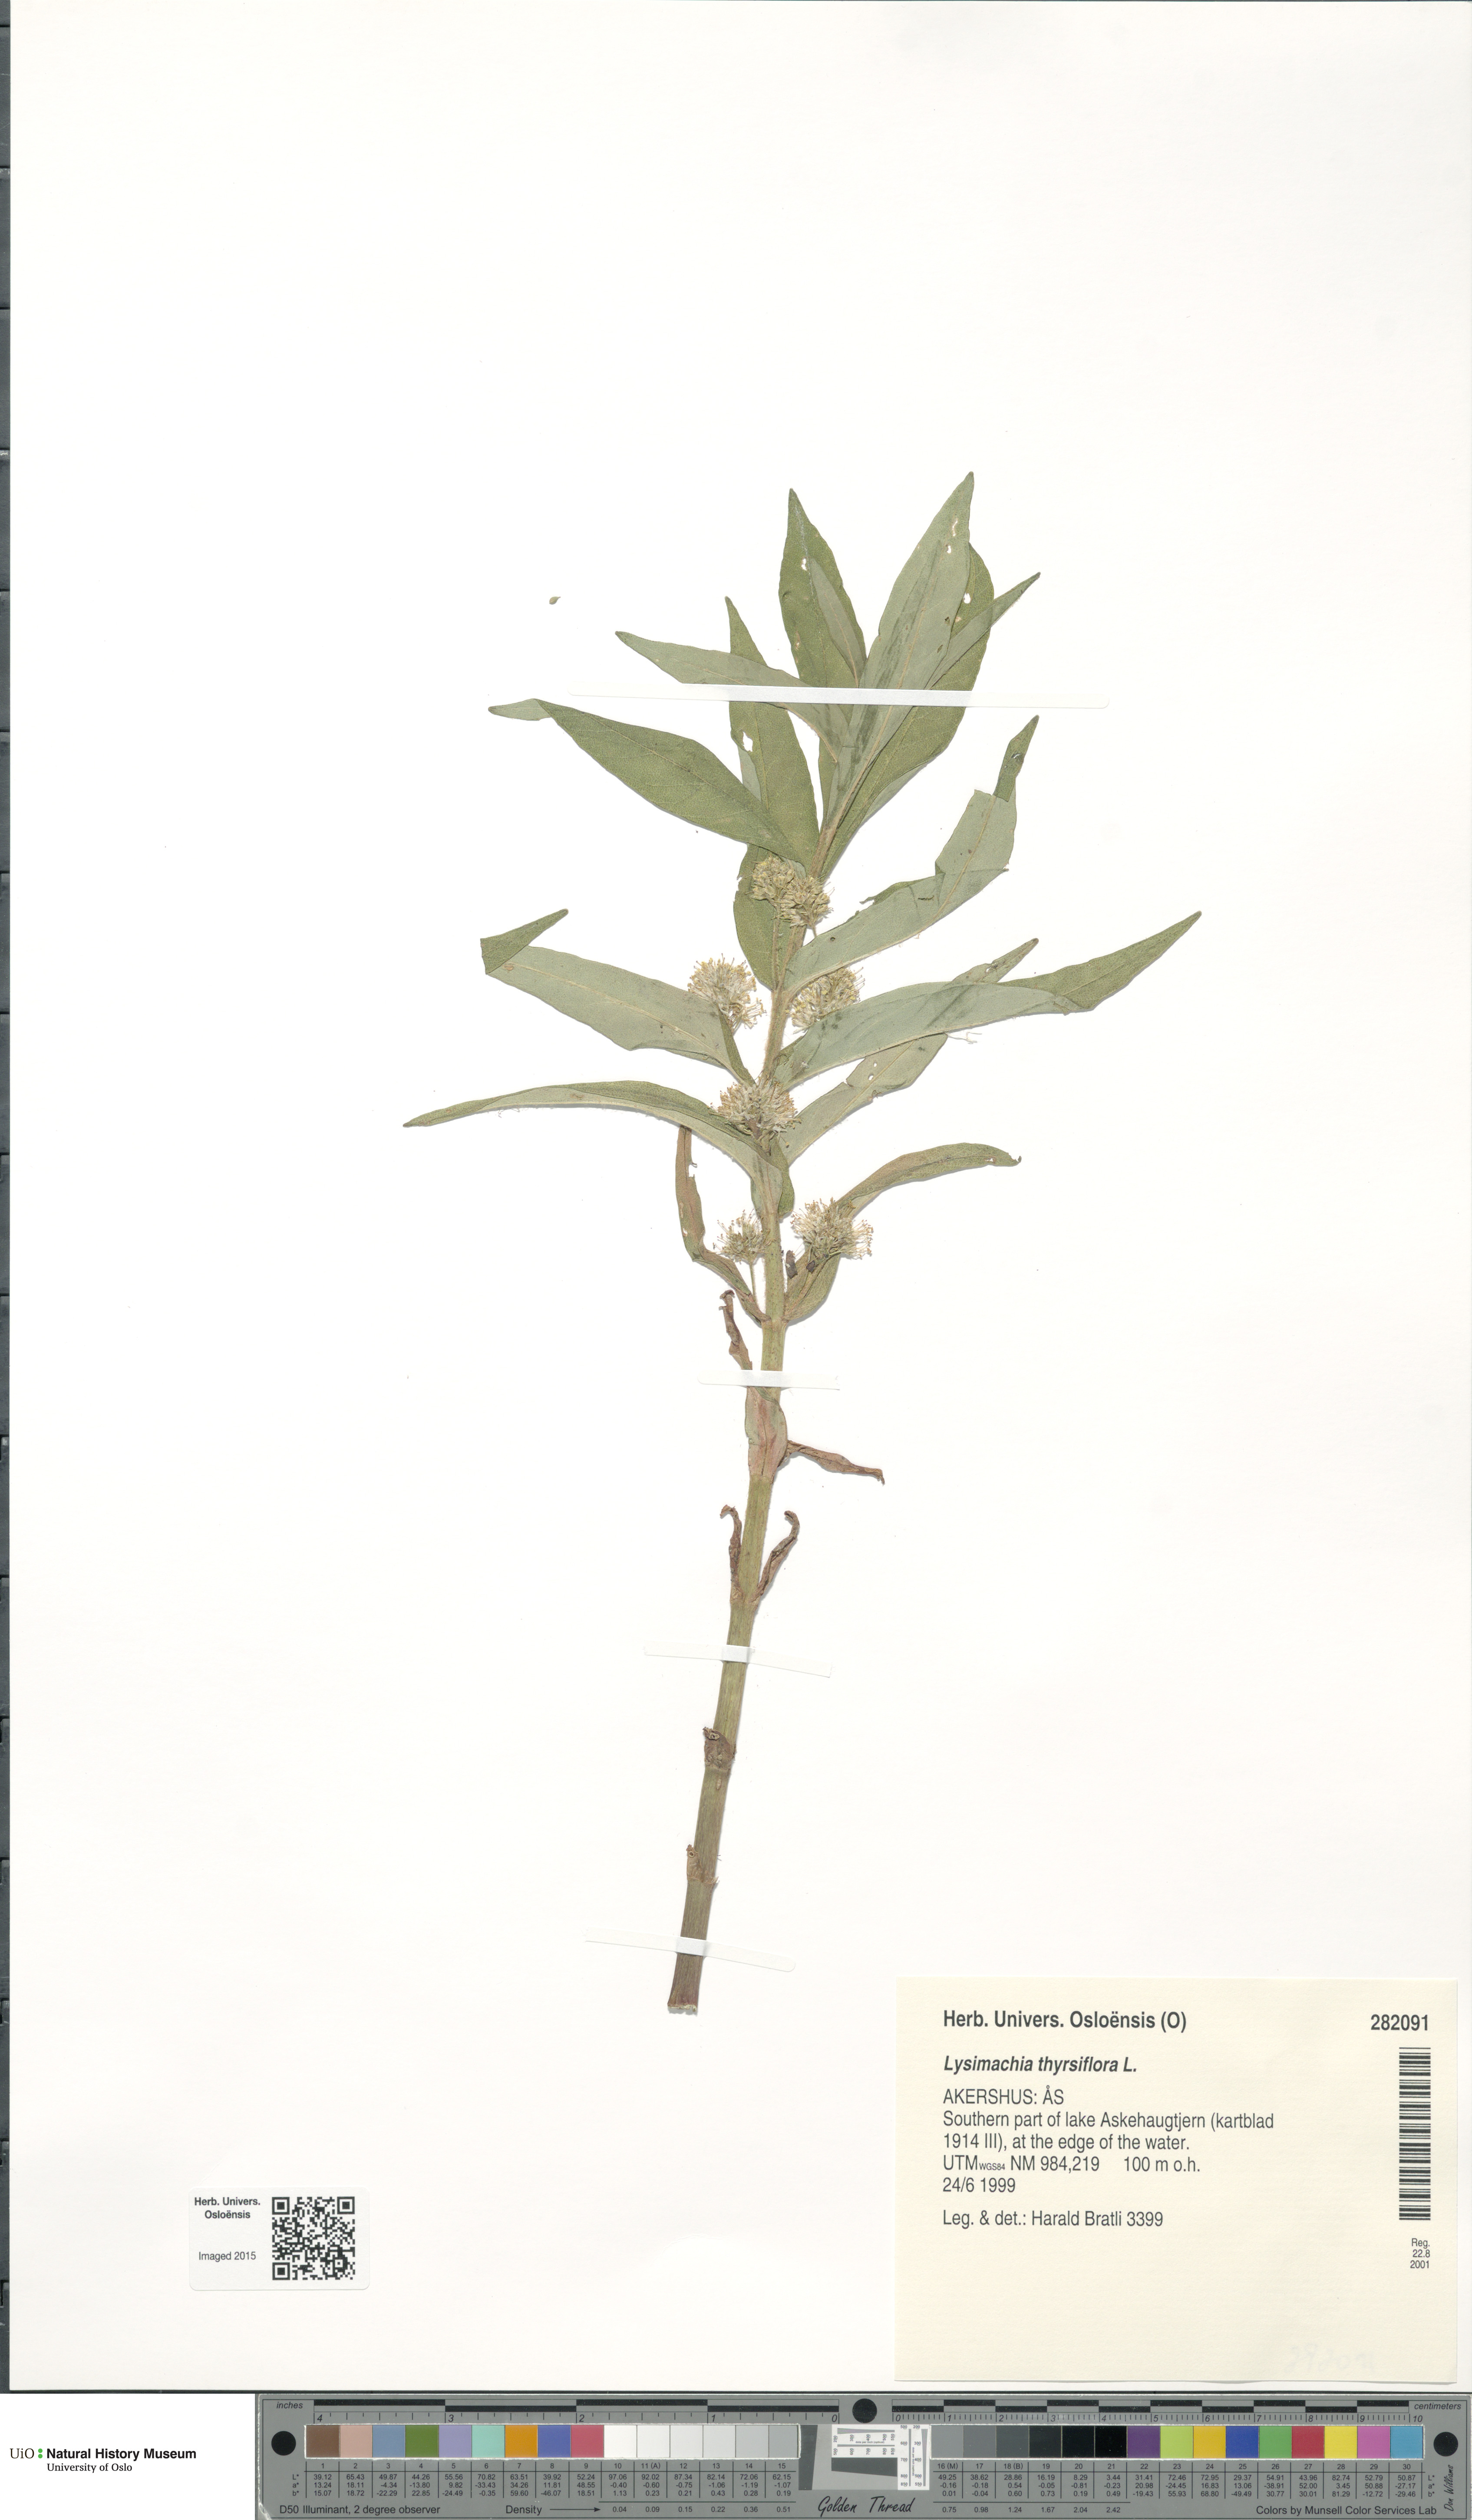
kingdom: Plantae
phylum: Tracheophyta
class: Magnoliopsida
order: Ericales
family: Primulaceae
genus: Lysimachia
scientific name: Lysimachia thyrsiflora
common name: Tufted loosestrife
